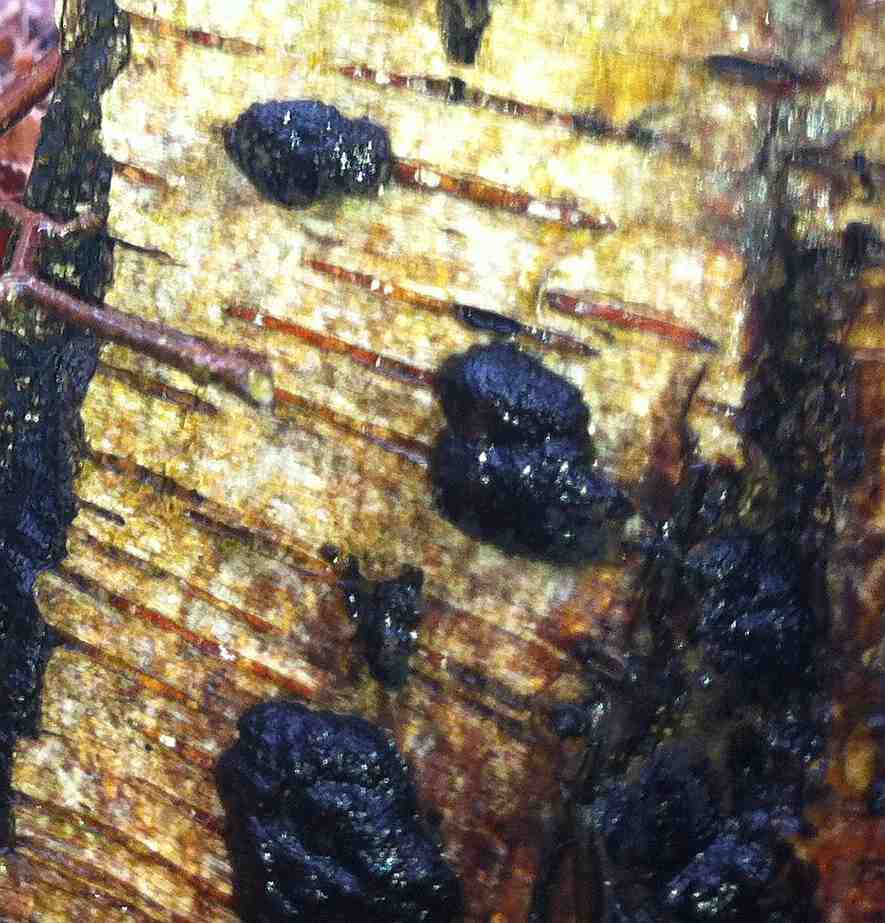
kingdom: Fungi
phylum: Ascomycota
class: Sordariomycetes
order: Xylariales
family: Hypoxylaceae
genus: Hypoxylon
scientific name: Hypoxylon fuscum
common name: kegleformet kulbær
